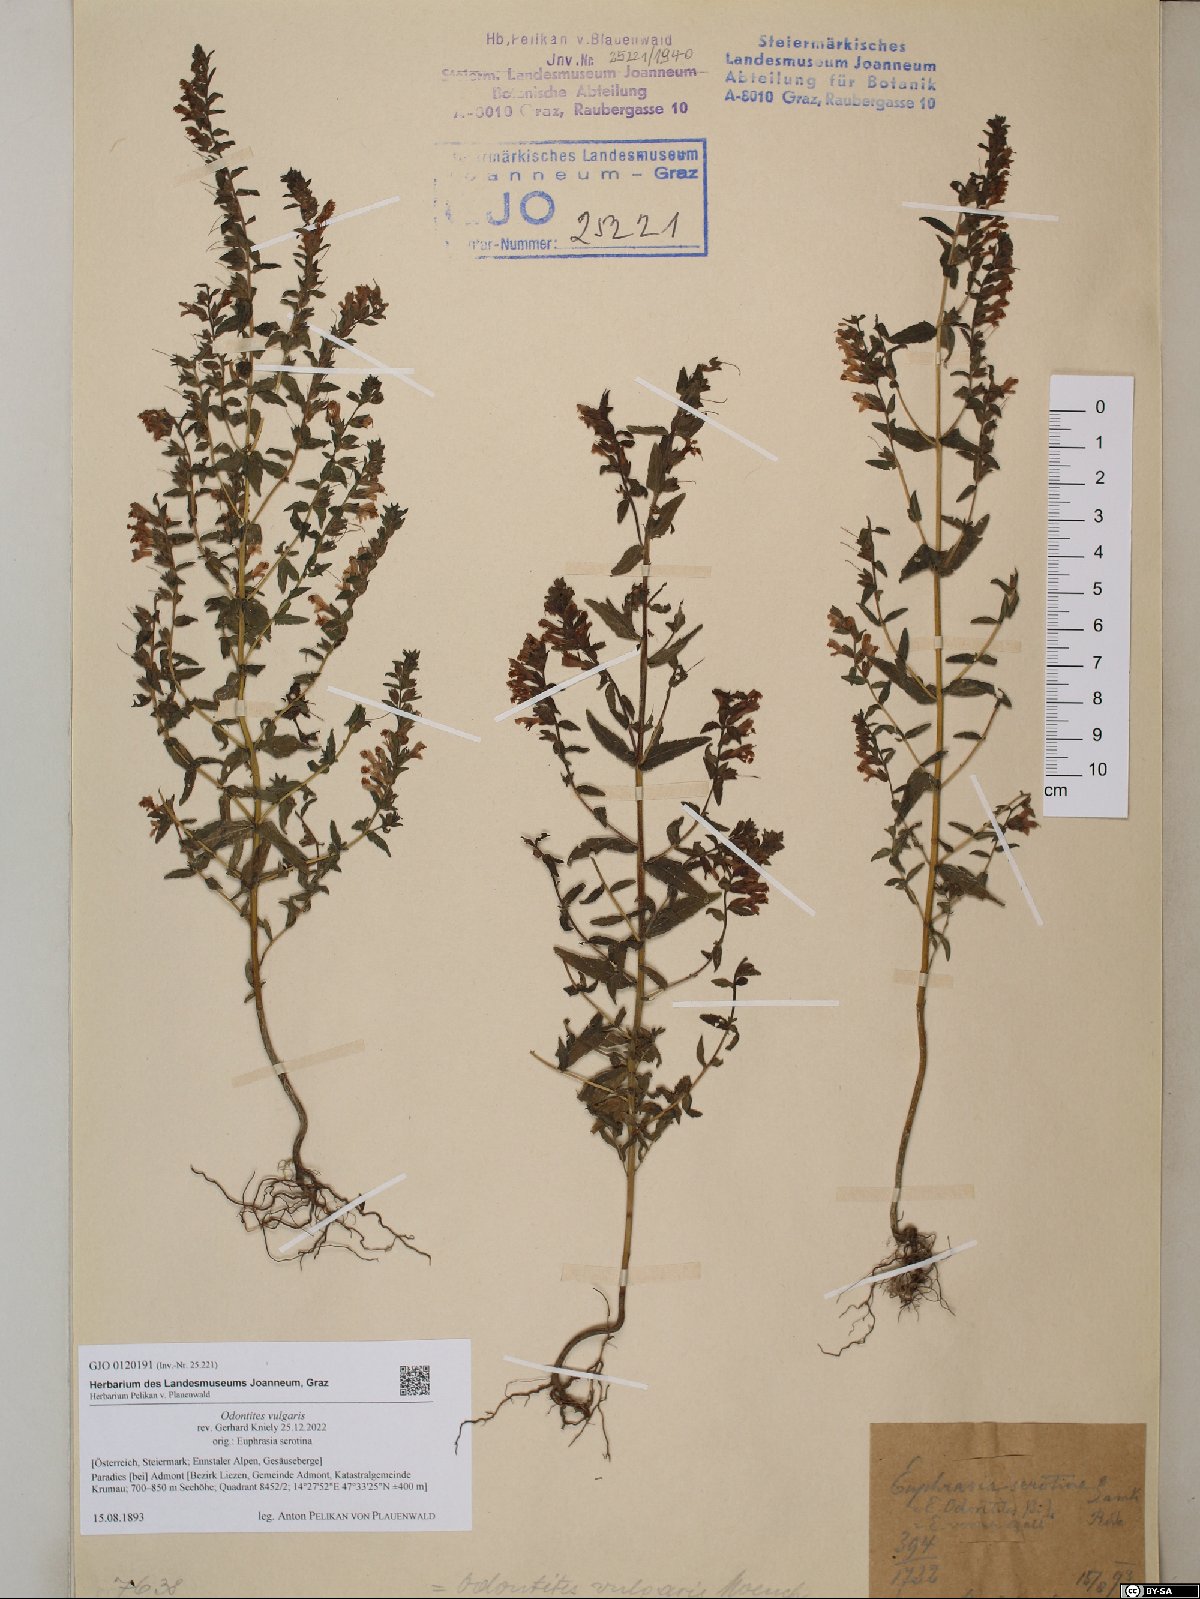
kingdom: Plantae
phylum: Tracheophyta
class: Magnoliopsida
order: Lamiales
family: Orobanchaceae
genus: Odontites
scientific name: Odontites vulgaris
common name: Broomrape
